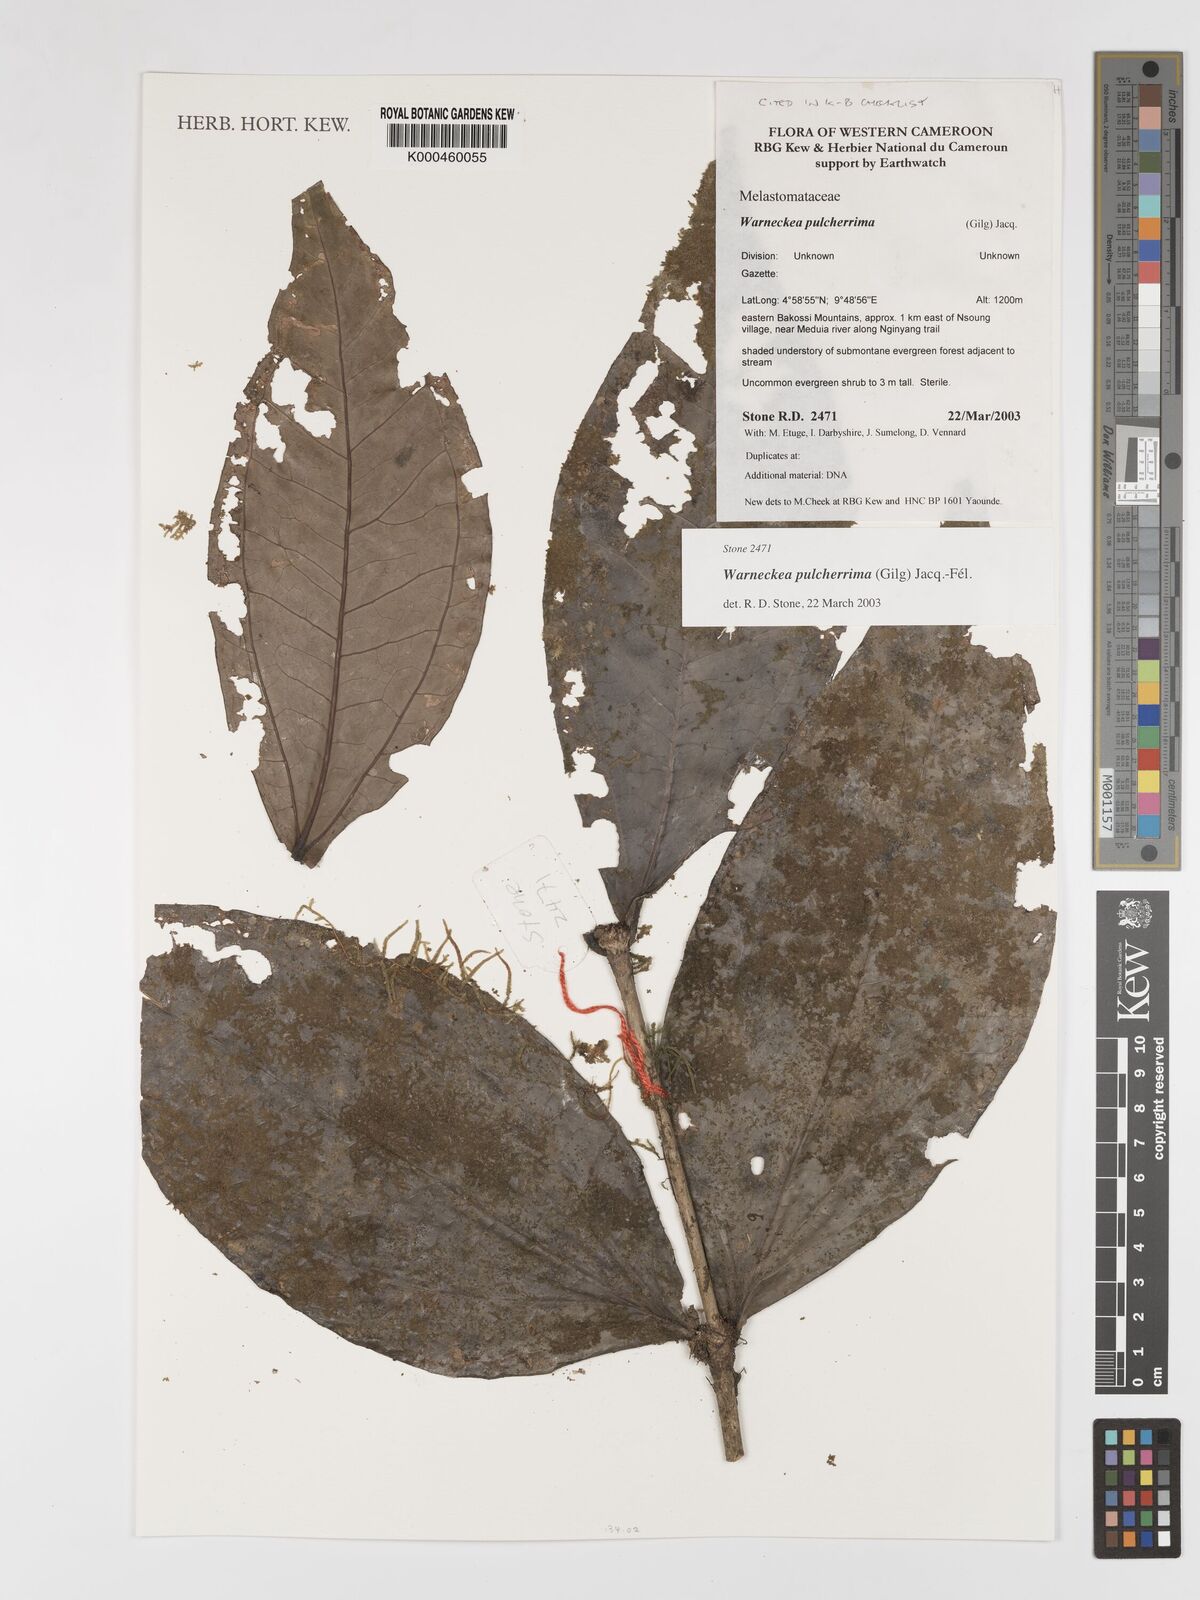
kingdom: Plantae
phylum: Tracheophyta
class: Magnoliopsida
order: Myrtales
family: Melastomataceae
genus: Warneckea
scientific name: Warneckea
